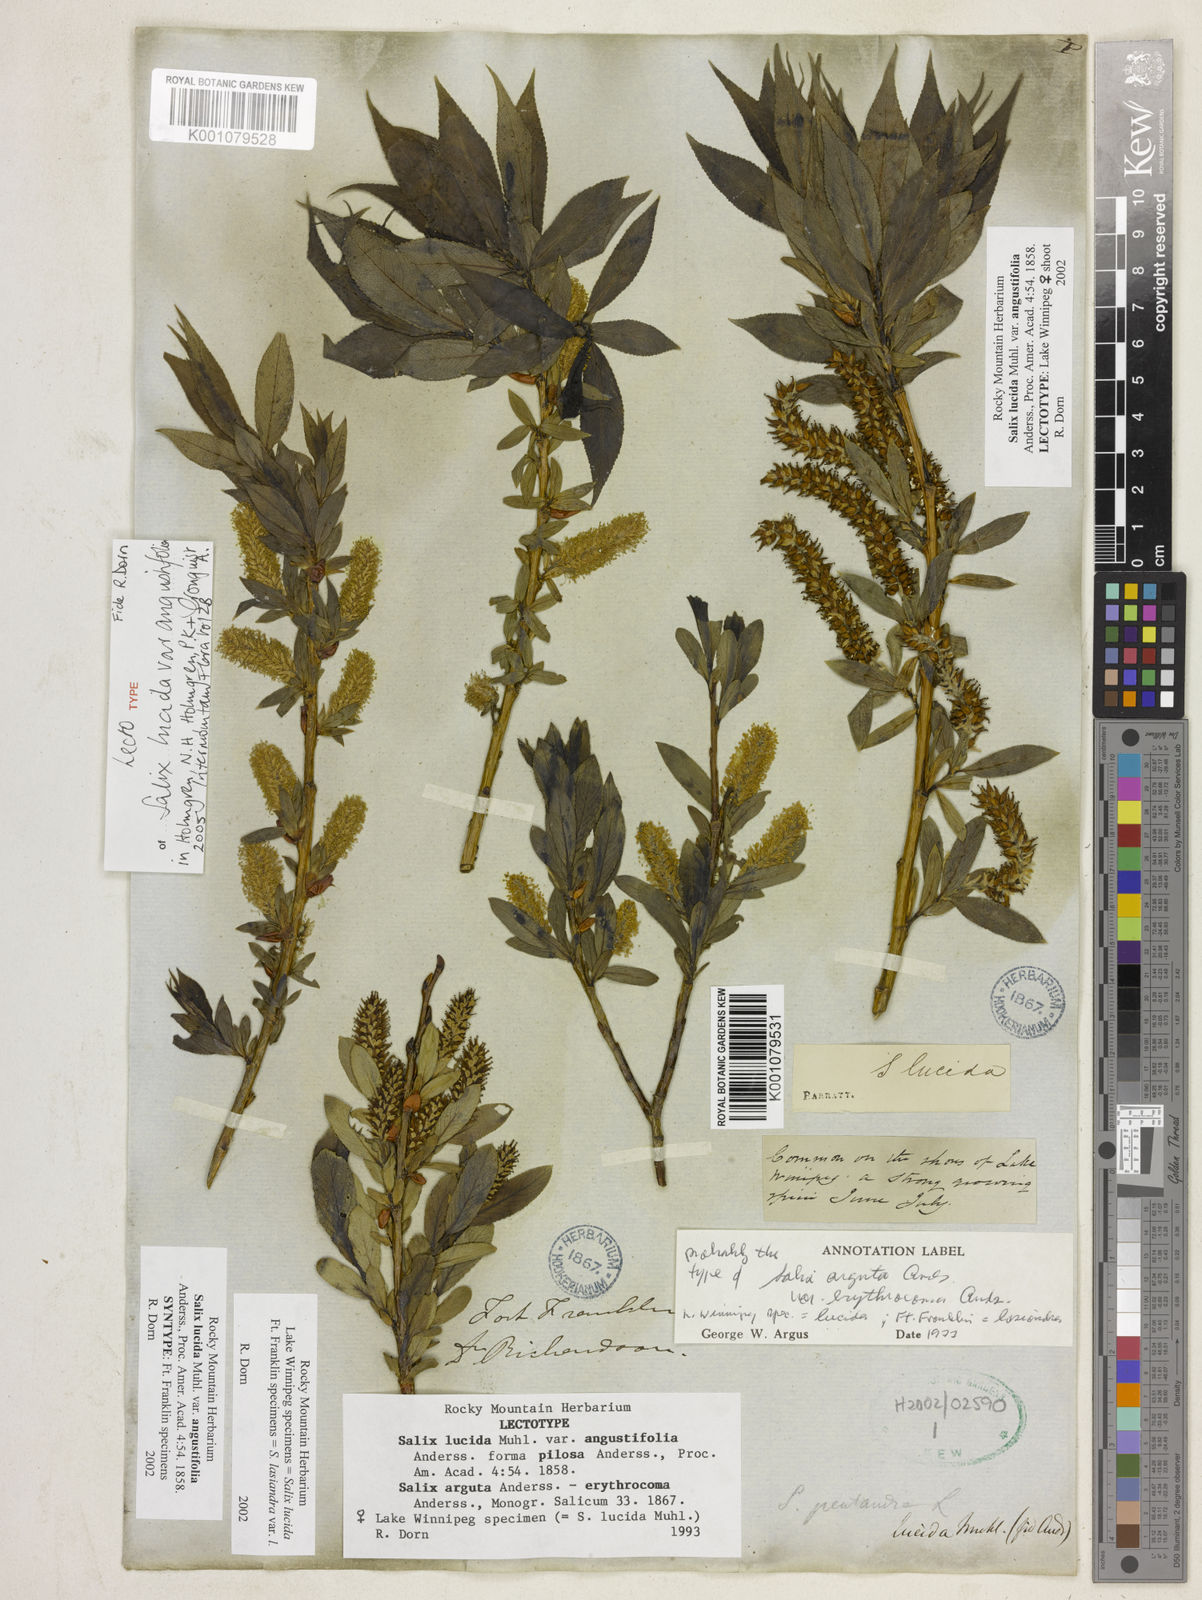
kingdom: Plantae
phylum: Tracheophyta
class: Magnoliopsida
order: Malpighiales
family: Salicaceae
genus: Salix
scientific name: Salix lucida
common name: Shining willow
